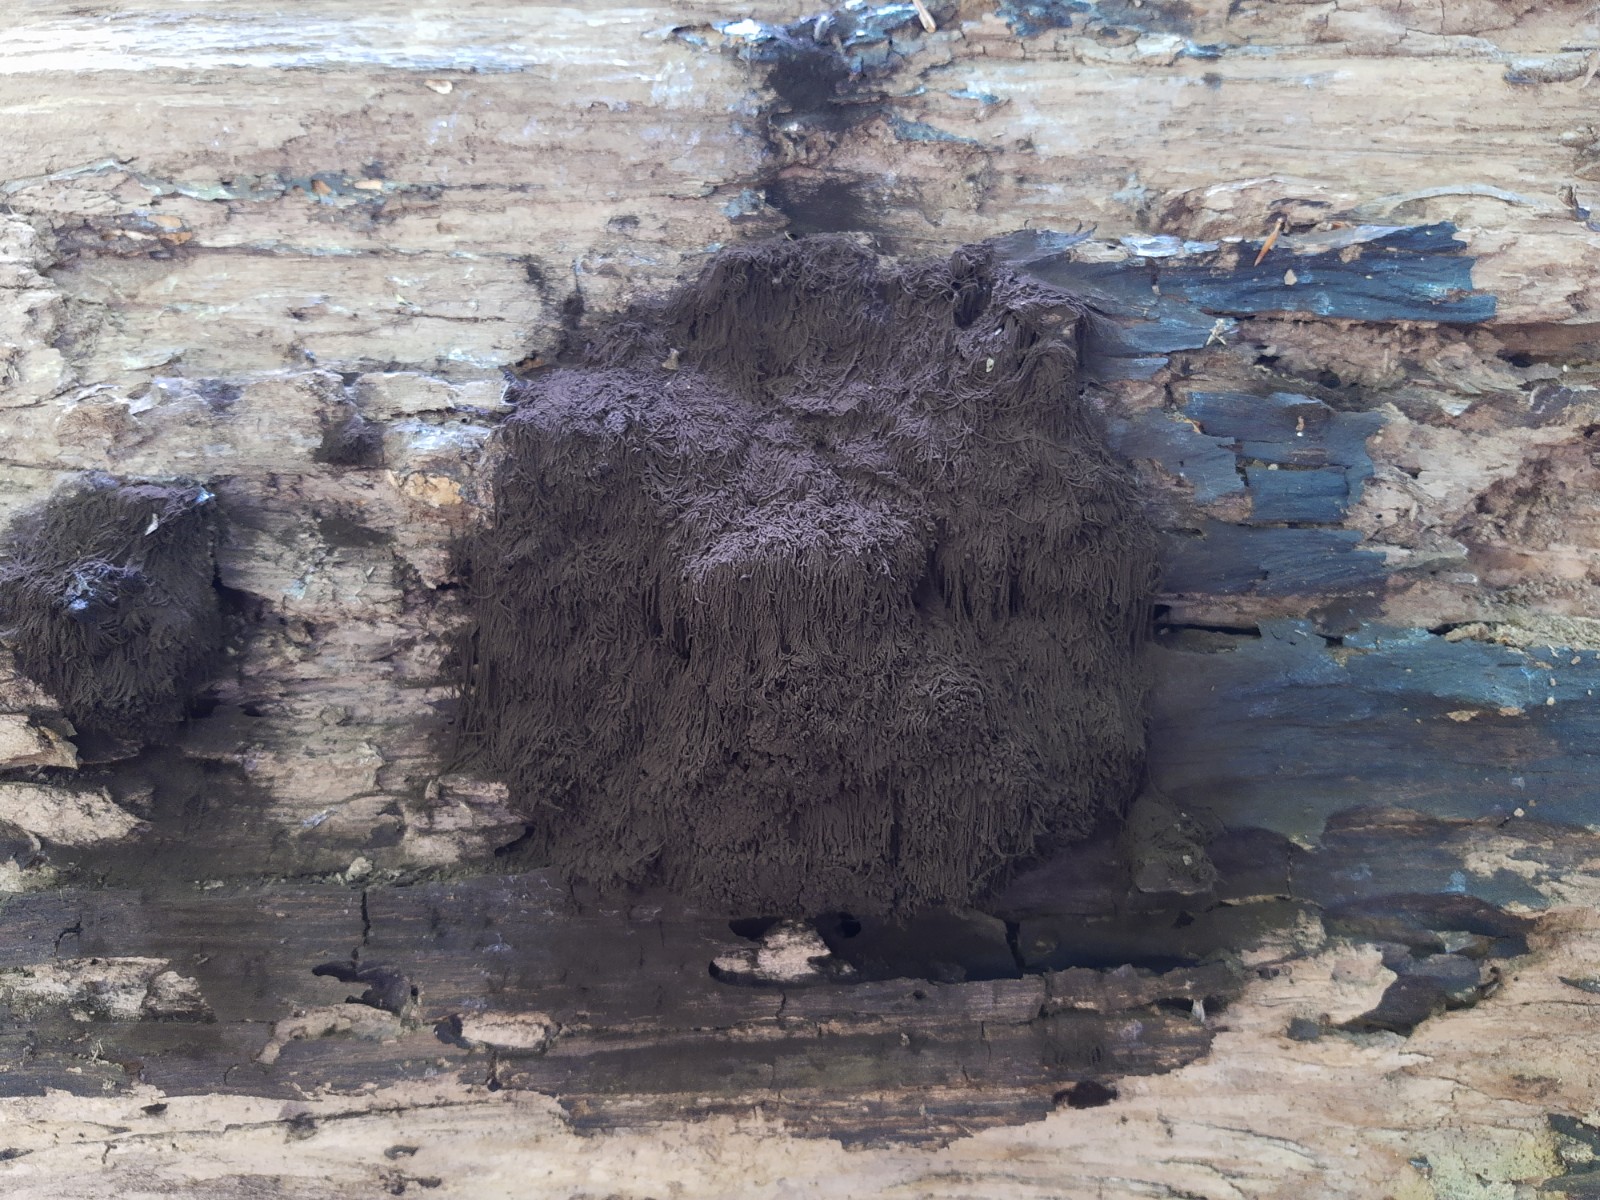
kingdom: Protozoa
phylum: Mycetozoa
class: Myxomycetes
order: Stemonitidales
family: Stemonitidaceae
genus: Symphytocarpus
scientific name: Symphytocarpus amaurochaetoides
